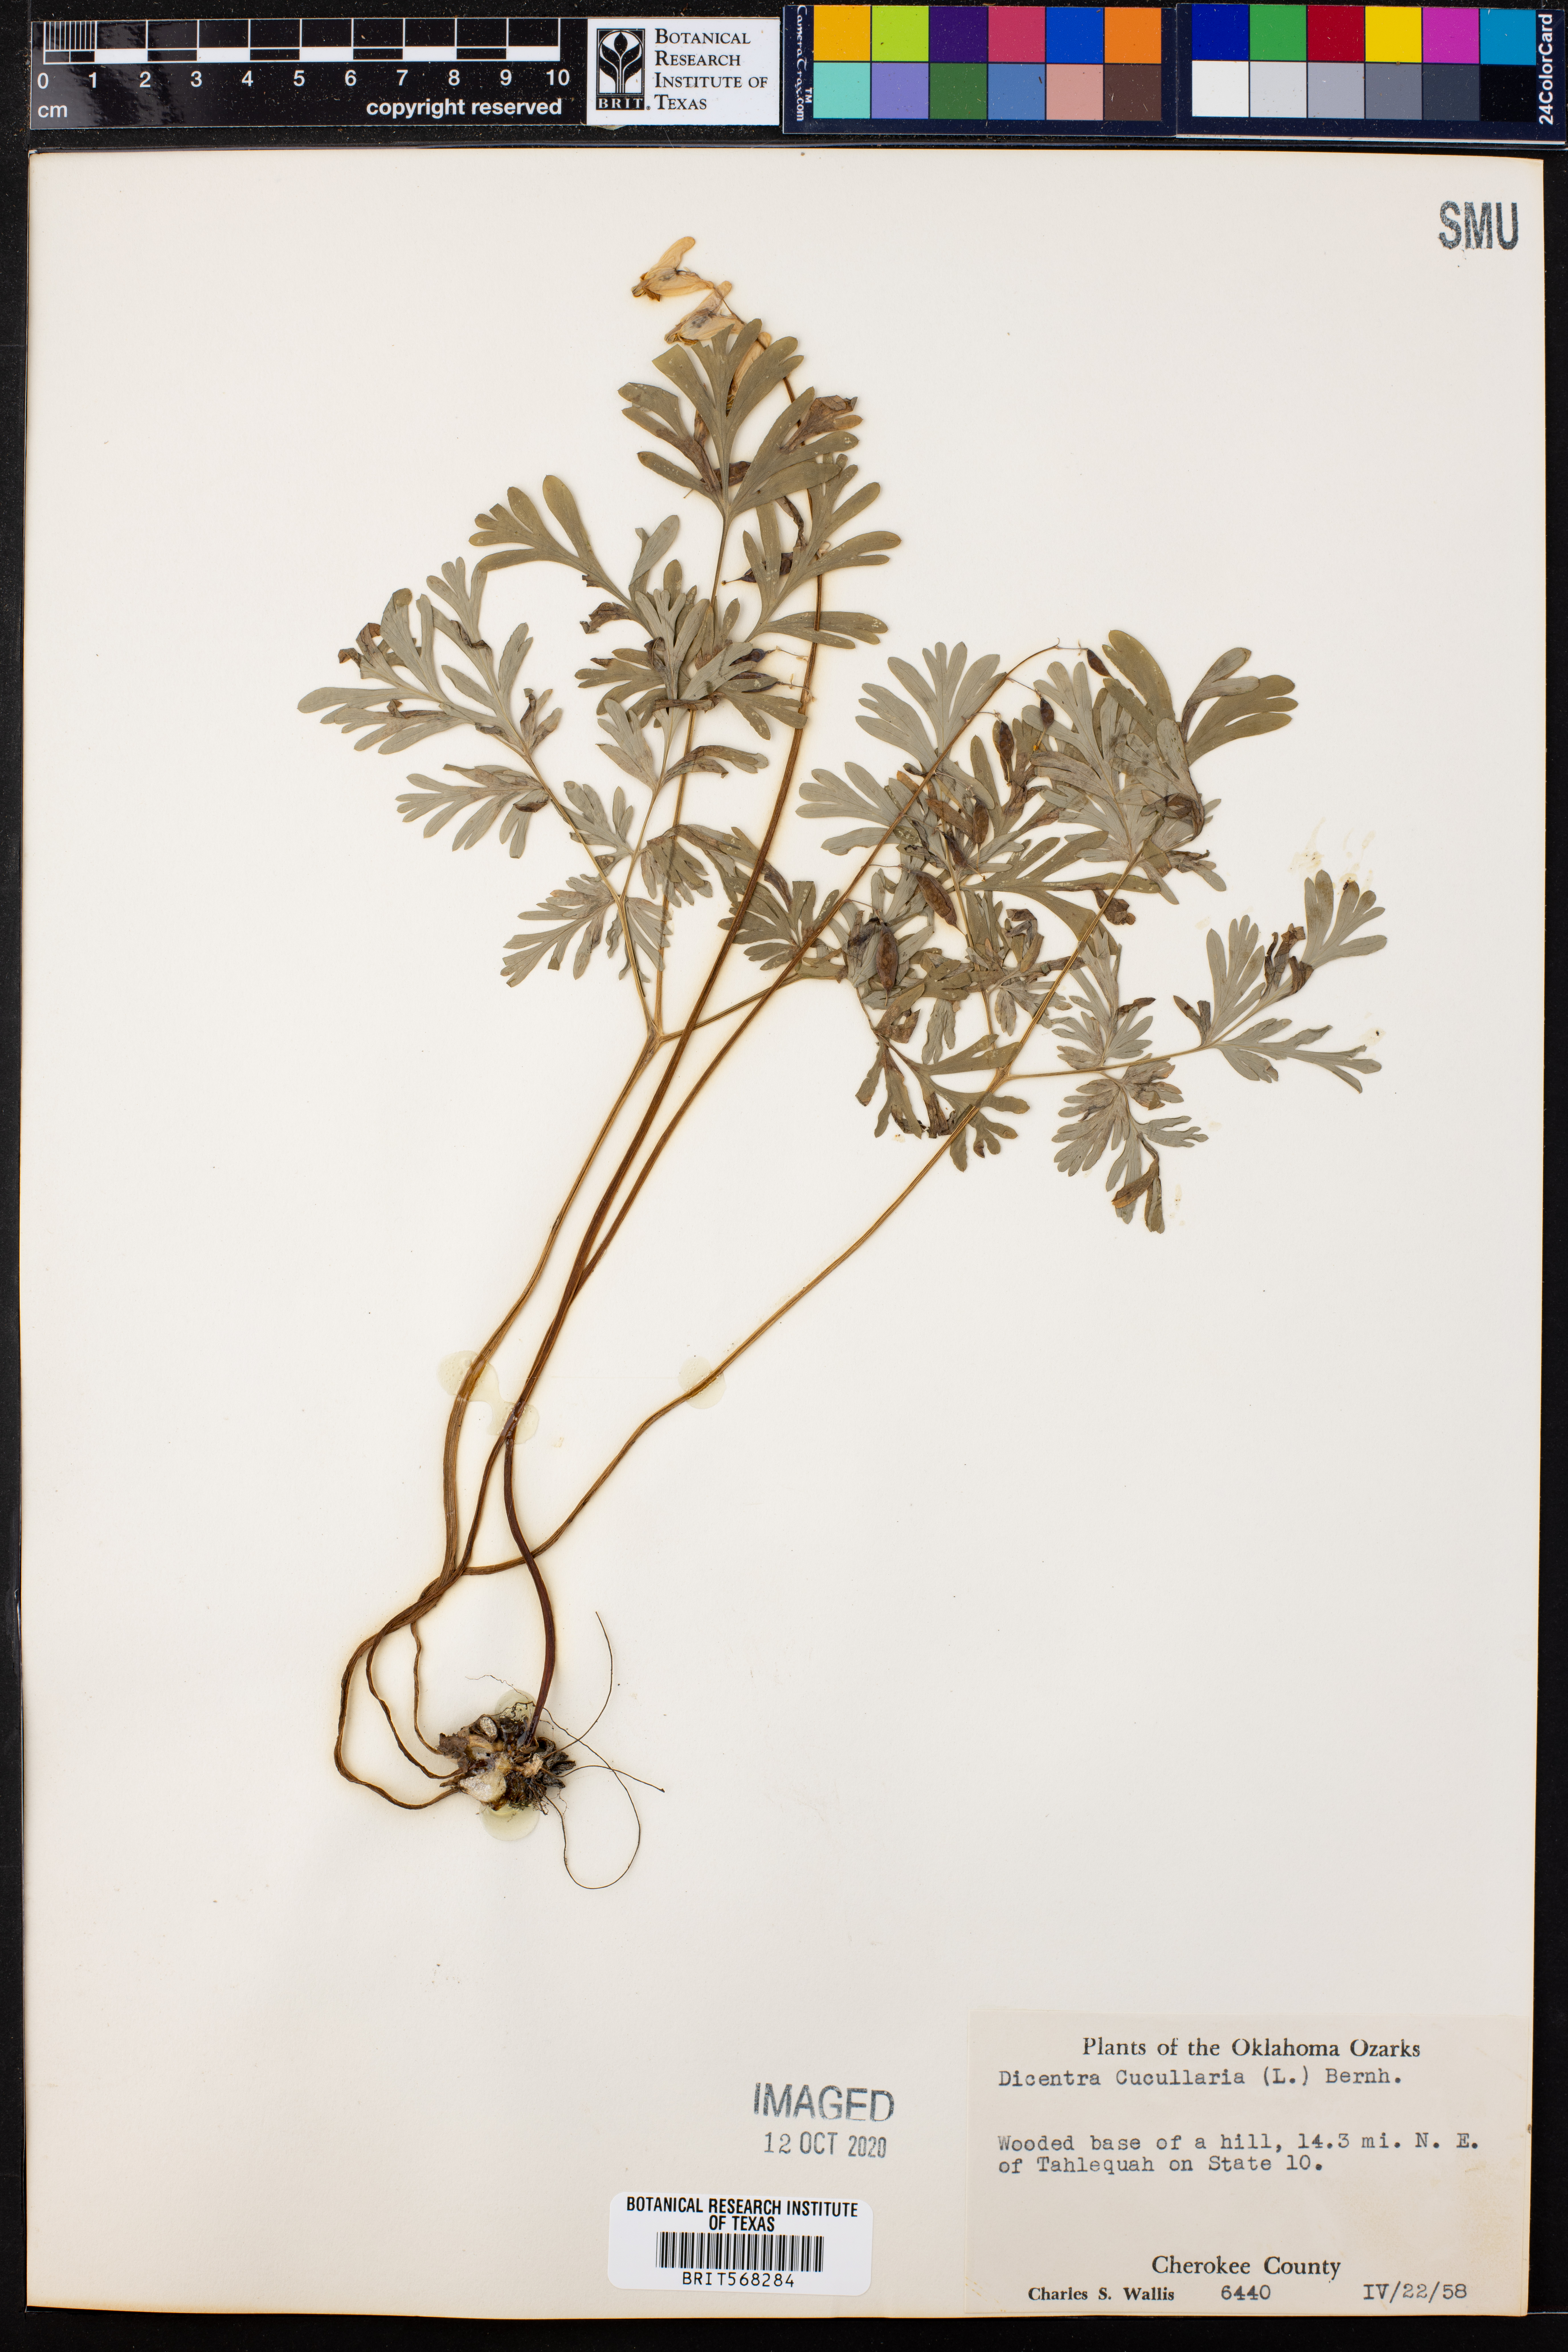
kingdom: Plantae
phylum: Tracheophyta
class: Magnoliopsida
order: Ranunculales
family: Papaveraceae
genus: Dicentra
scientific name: Dicentra cucullaria
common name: Dutchman's breeches
